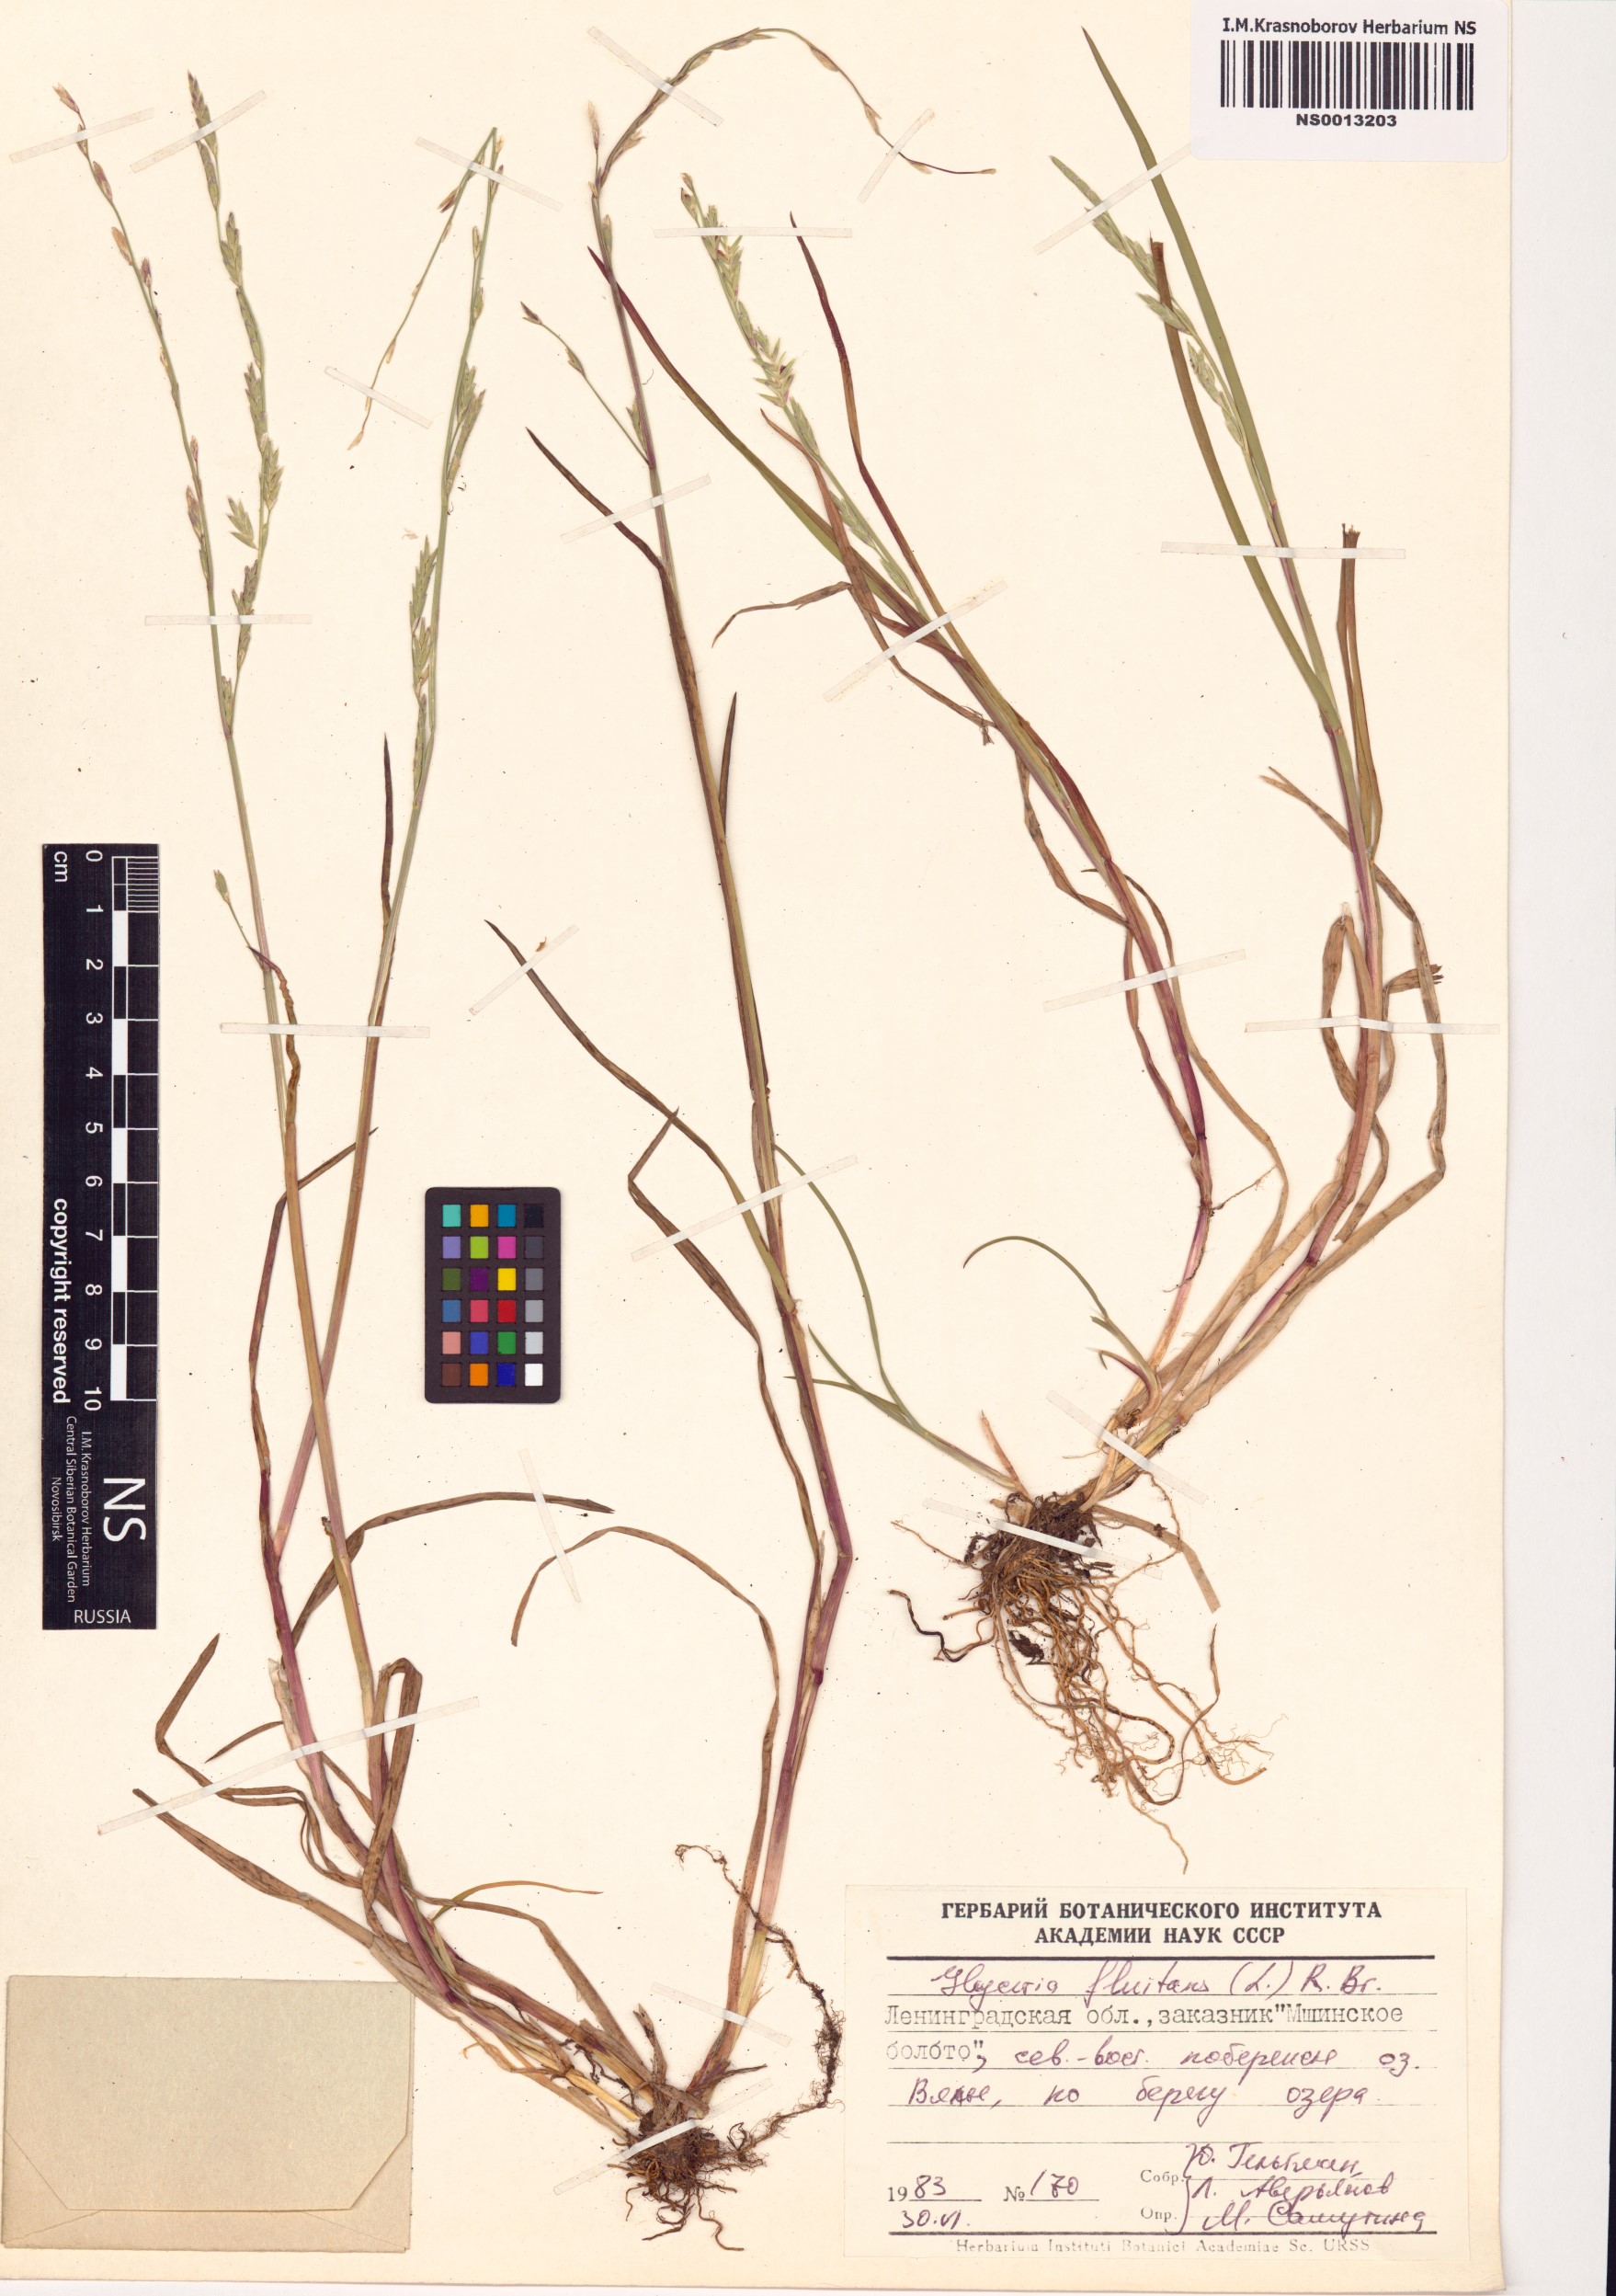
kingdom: Plantae
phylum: Tracheophyta
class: Liliopsida
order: Poales
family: Poaceae
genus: Glyceria
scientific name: Glyceria fluitans
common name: Floating sweet-grass
